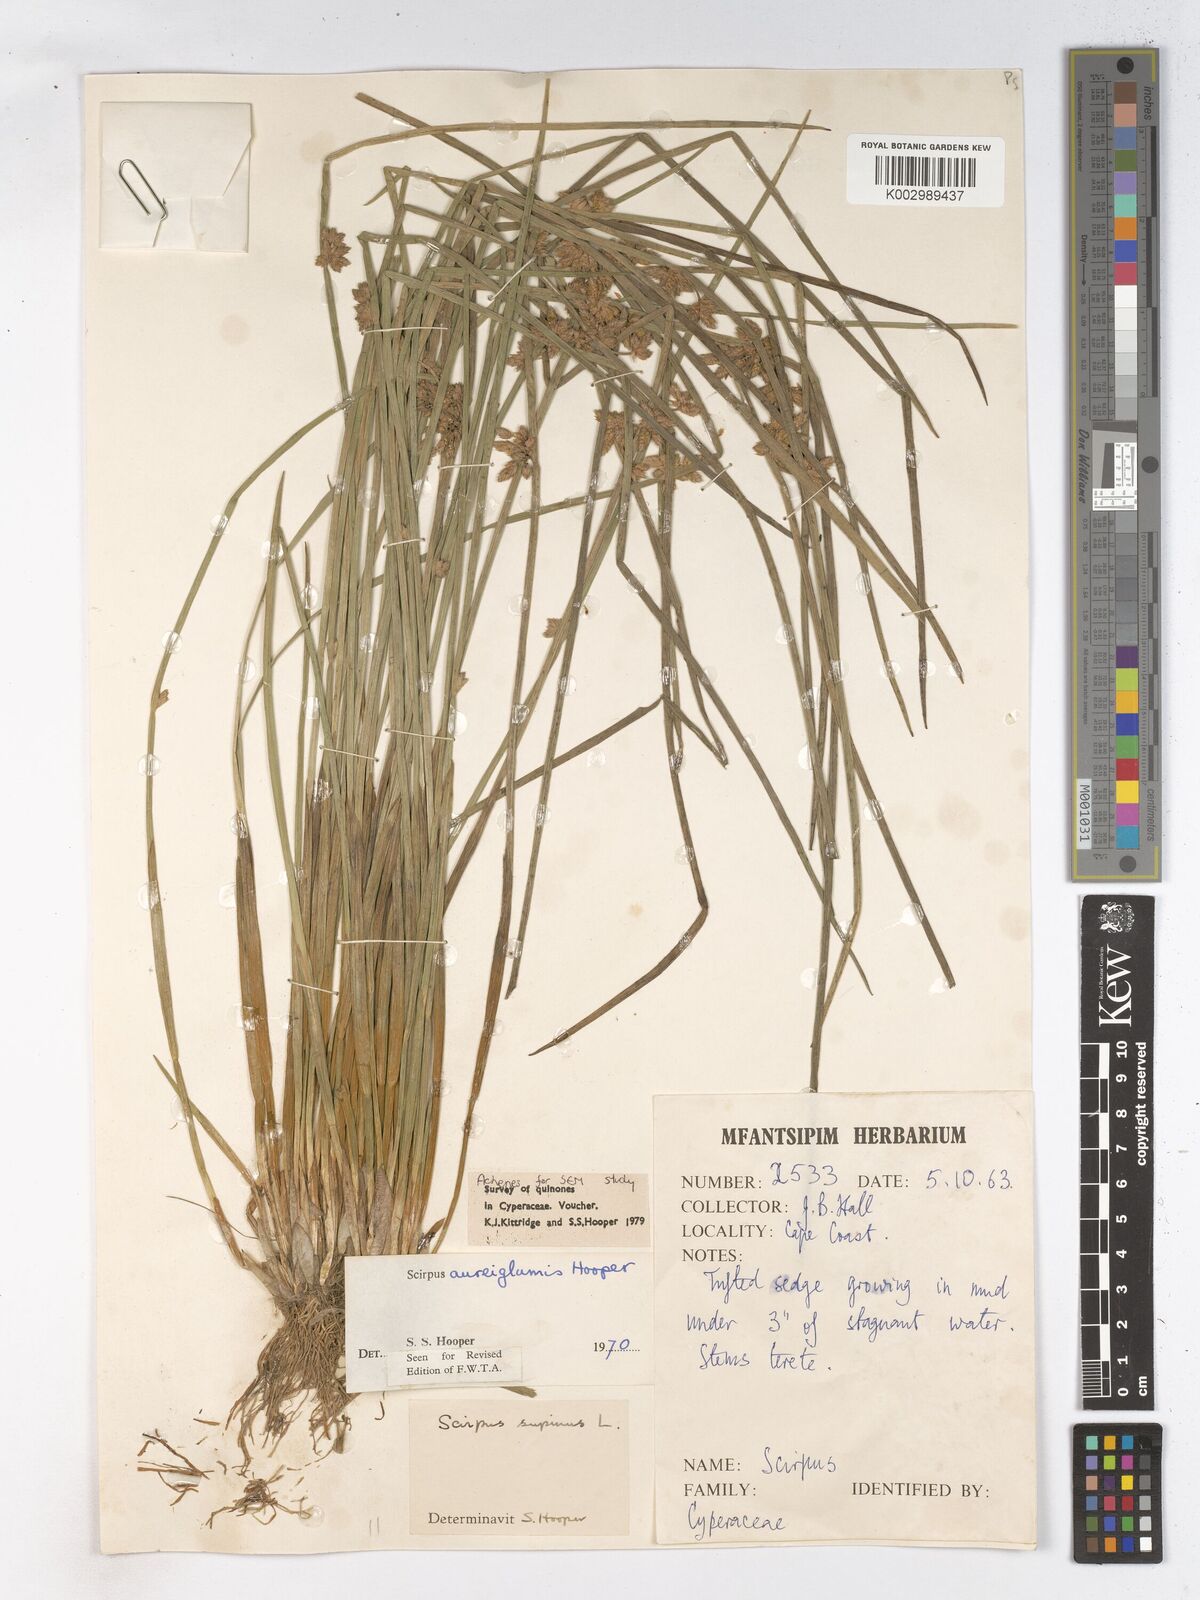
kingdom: Plantae
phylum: Tracheophyta
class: Liliopsida
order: Poales
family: Cyperaceae
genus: Schoenoplectiella
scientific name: Schoenoplectiella juncea
